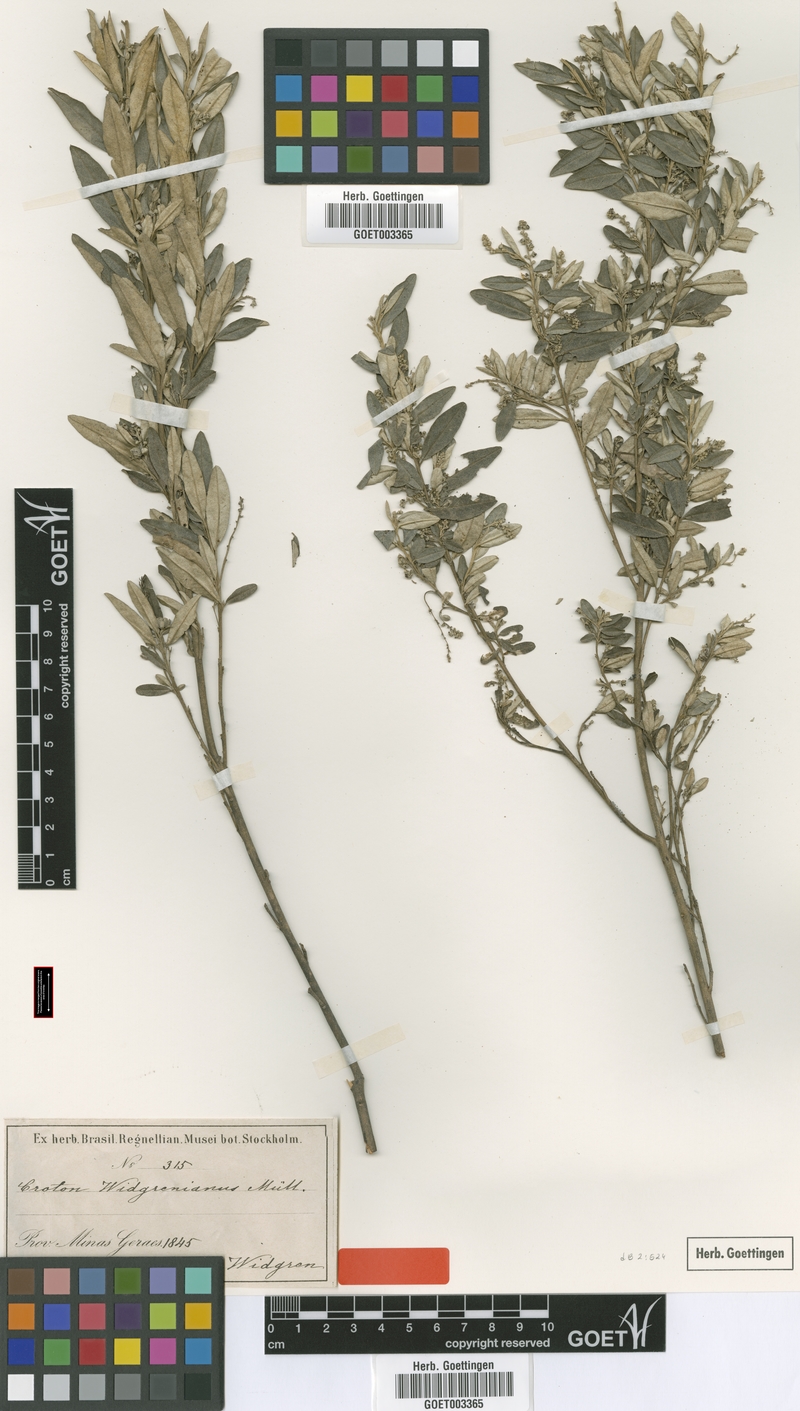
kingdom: Plantae
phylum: Tracheophyta
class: Magnoliopsida
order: Malpighiales
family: Euphorbiaceae
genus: Croton
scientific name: Croton widgrenianus
